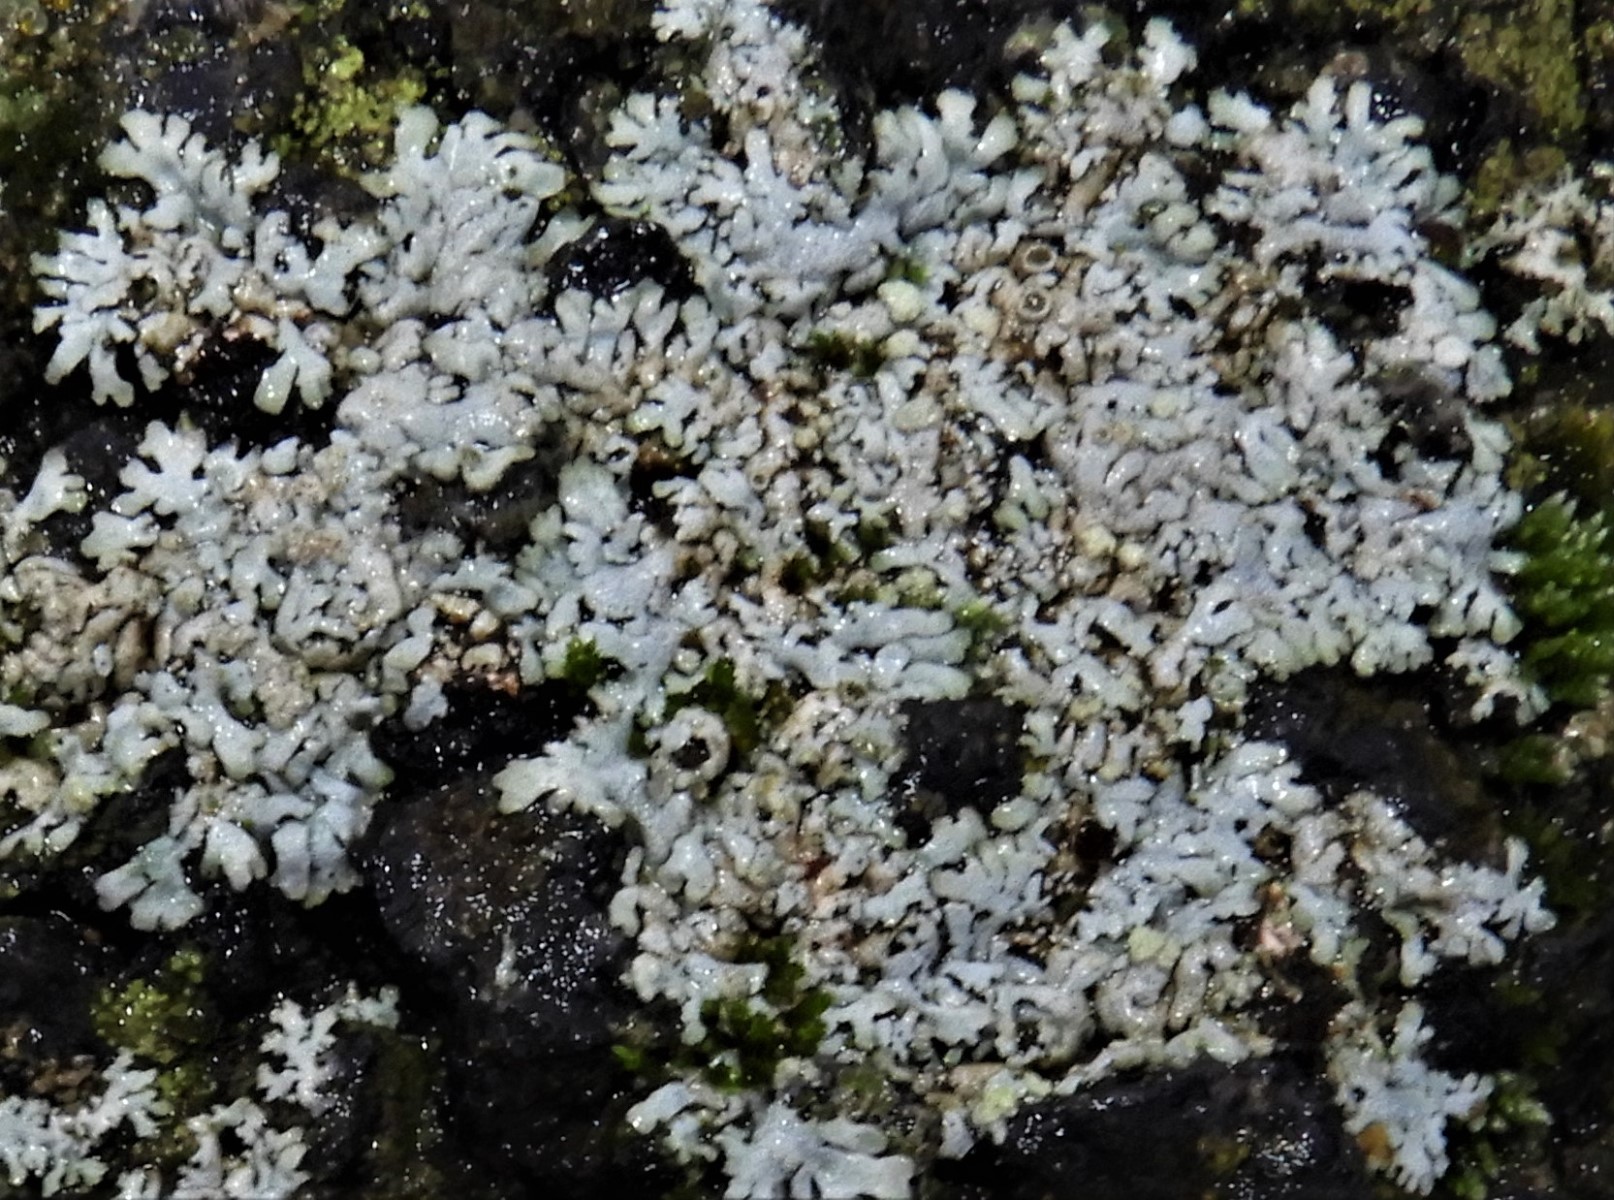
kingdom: Fungi
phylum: Ascomycota
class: Lecanoromycetes
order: Caliciales
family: Physciaceae
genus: Physcia
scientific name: Physcia dubia
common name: fuglestens-rosetlav
